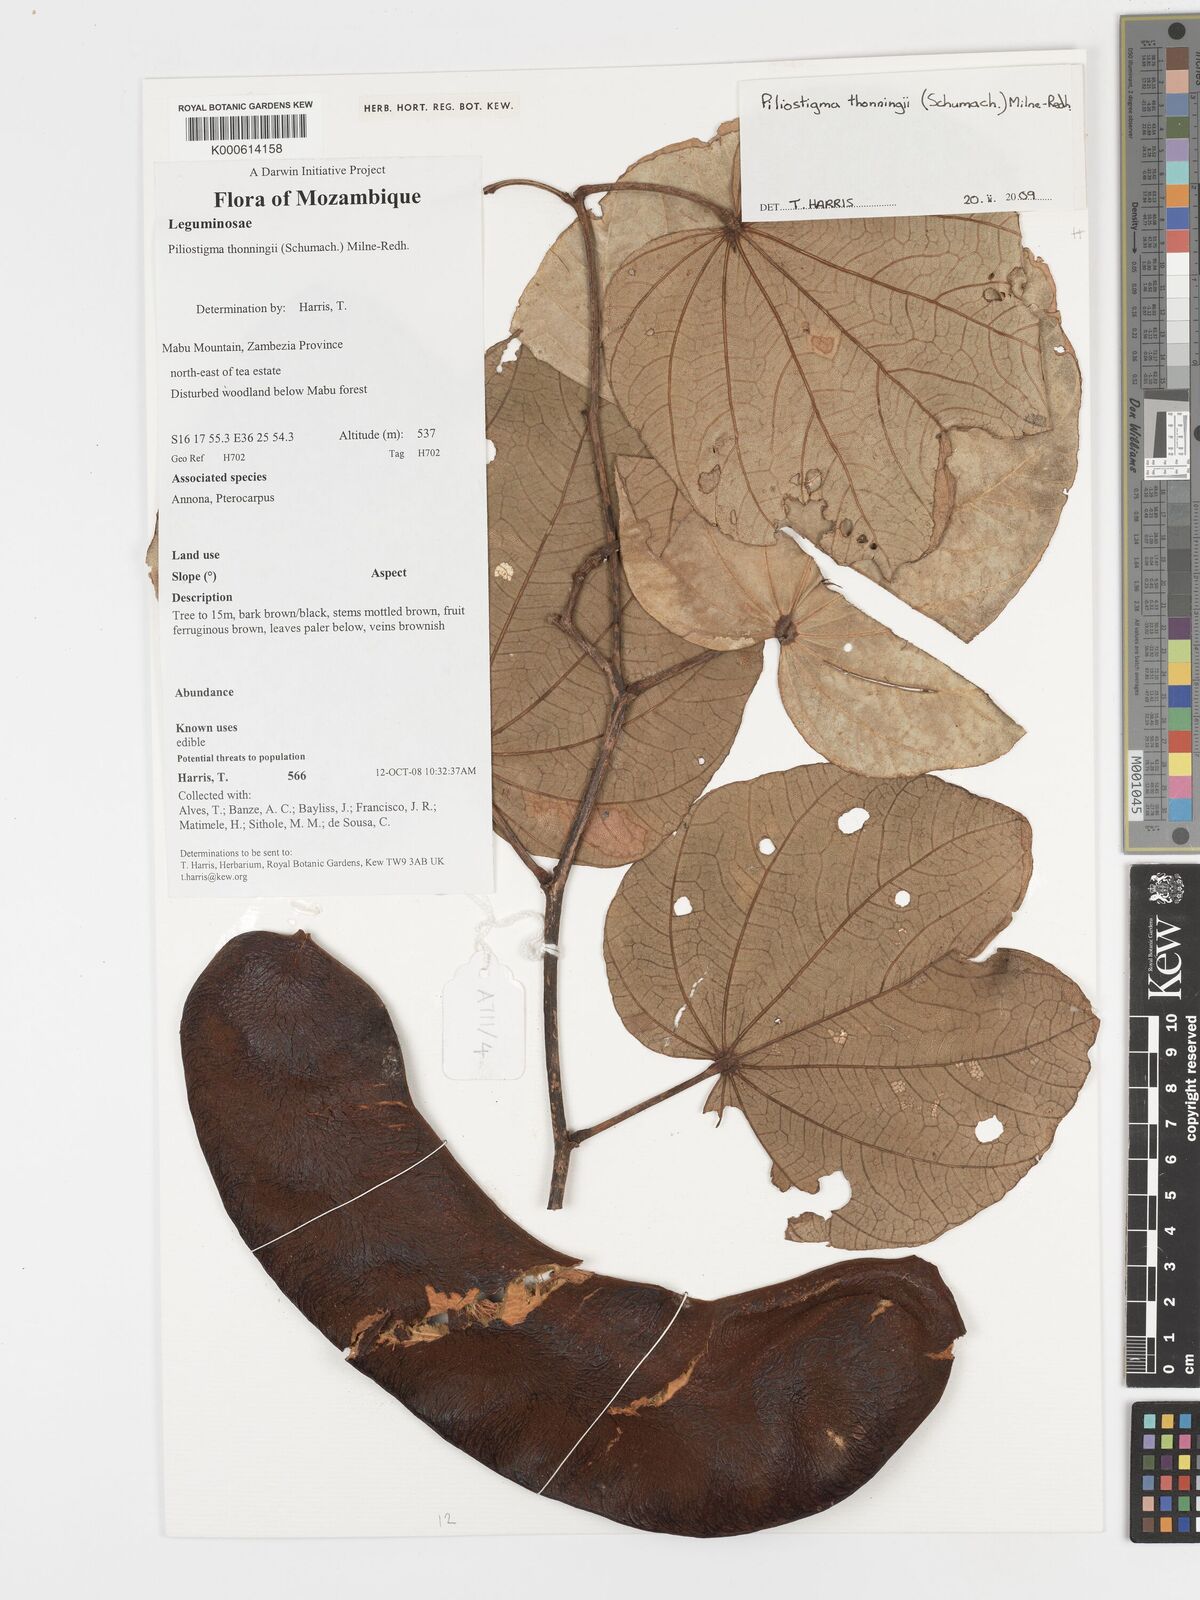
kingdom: Plantae
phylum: Tracheophyta
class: Magnoliopsida
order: Fabales
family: Fabaceae
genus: Piliostigma
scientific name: Piliostigma thonningii
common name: Kao
